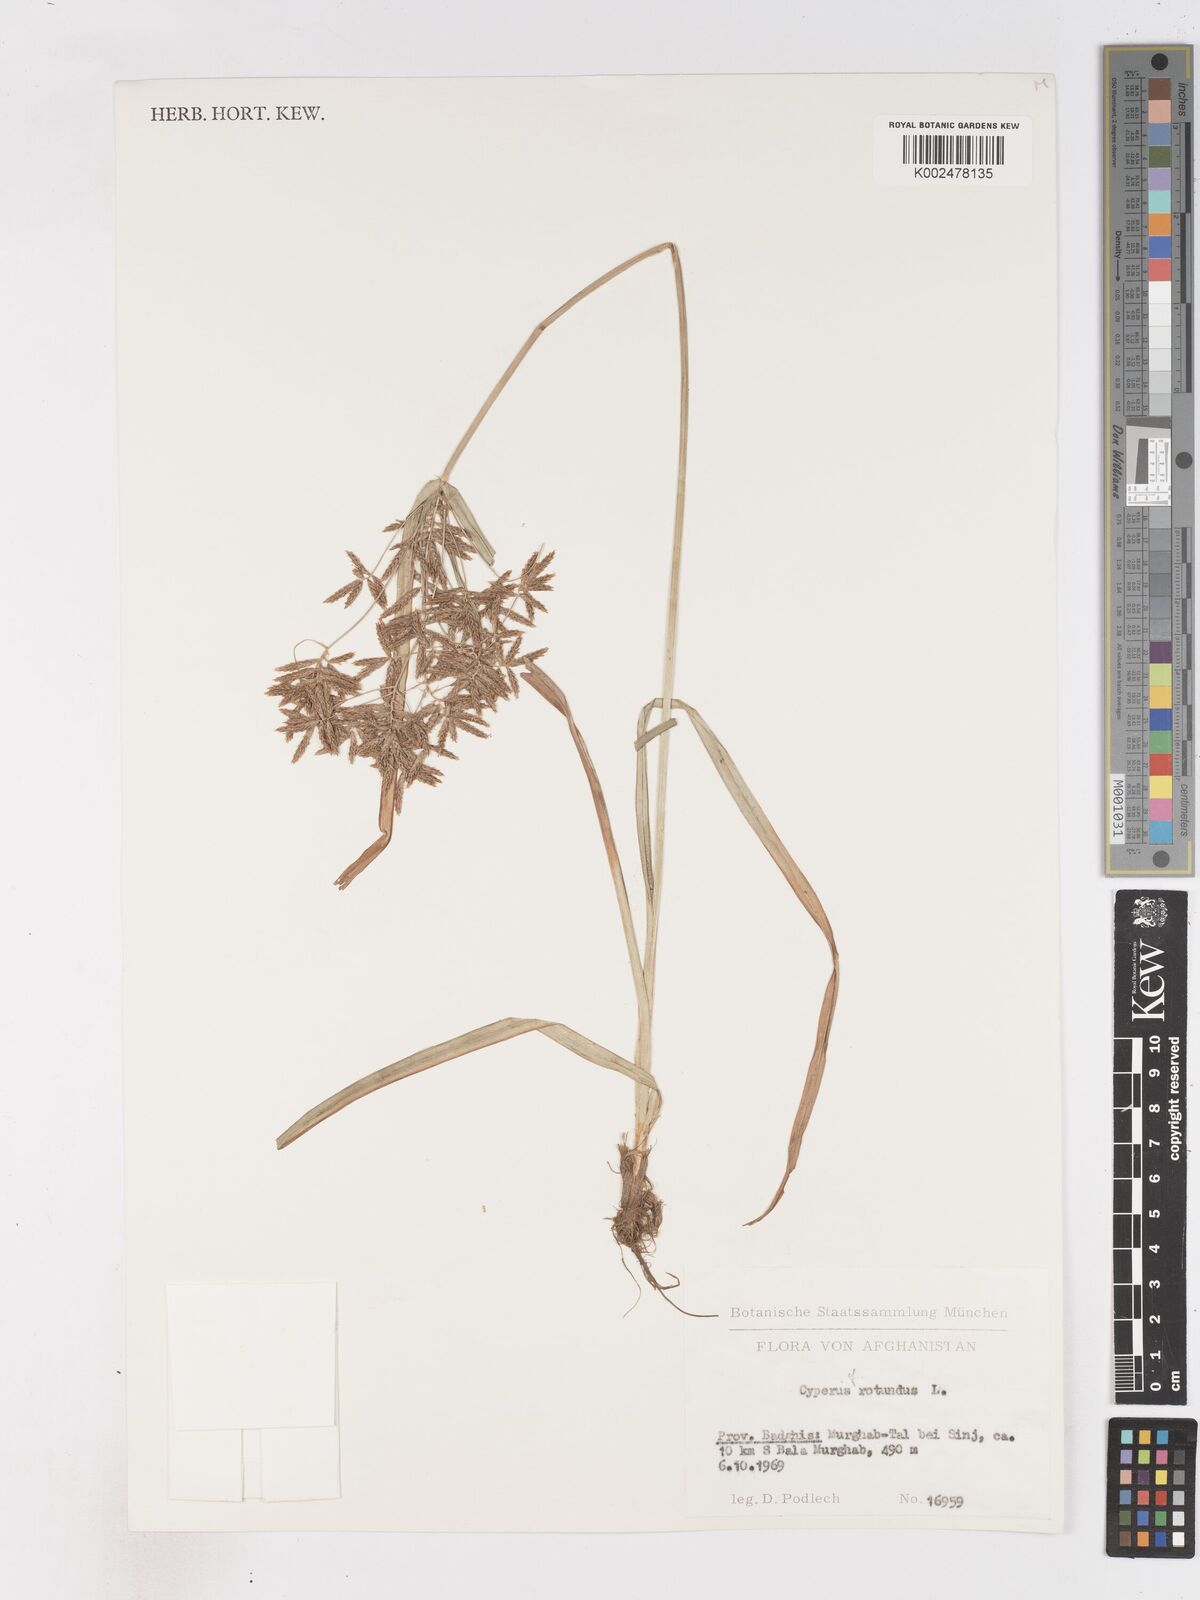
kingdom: Plantae
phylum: Tracheophyta
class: Liliopsida
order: Poales
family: Cyperaceae
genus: Cyperus
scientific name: Cyperus rotundus
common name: Nutgrass
